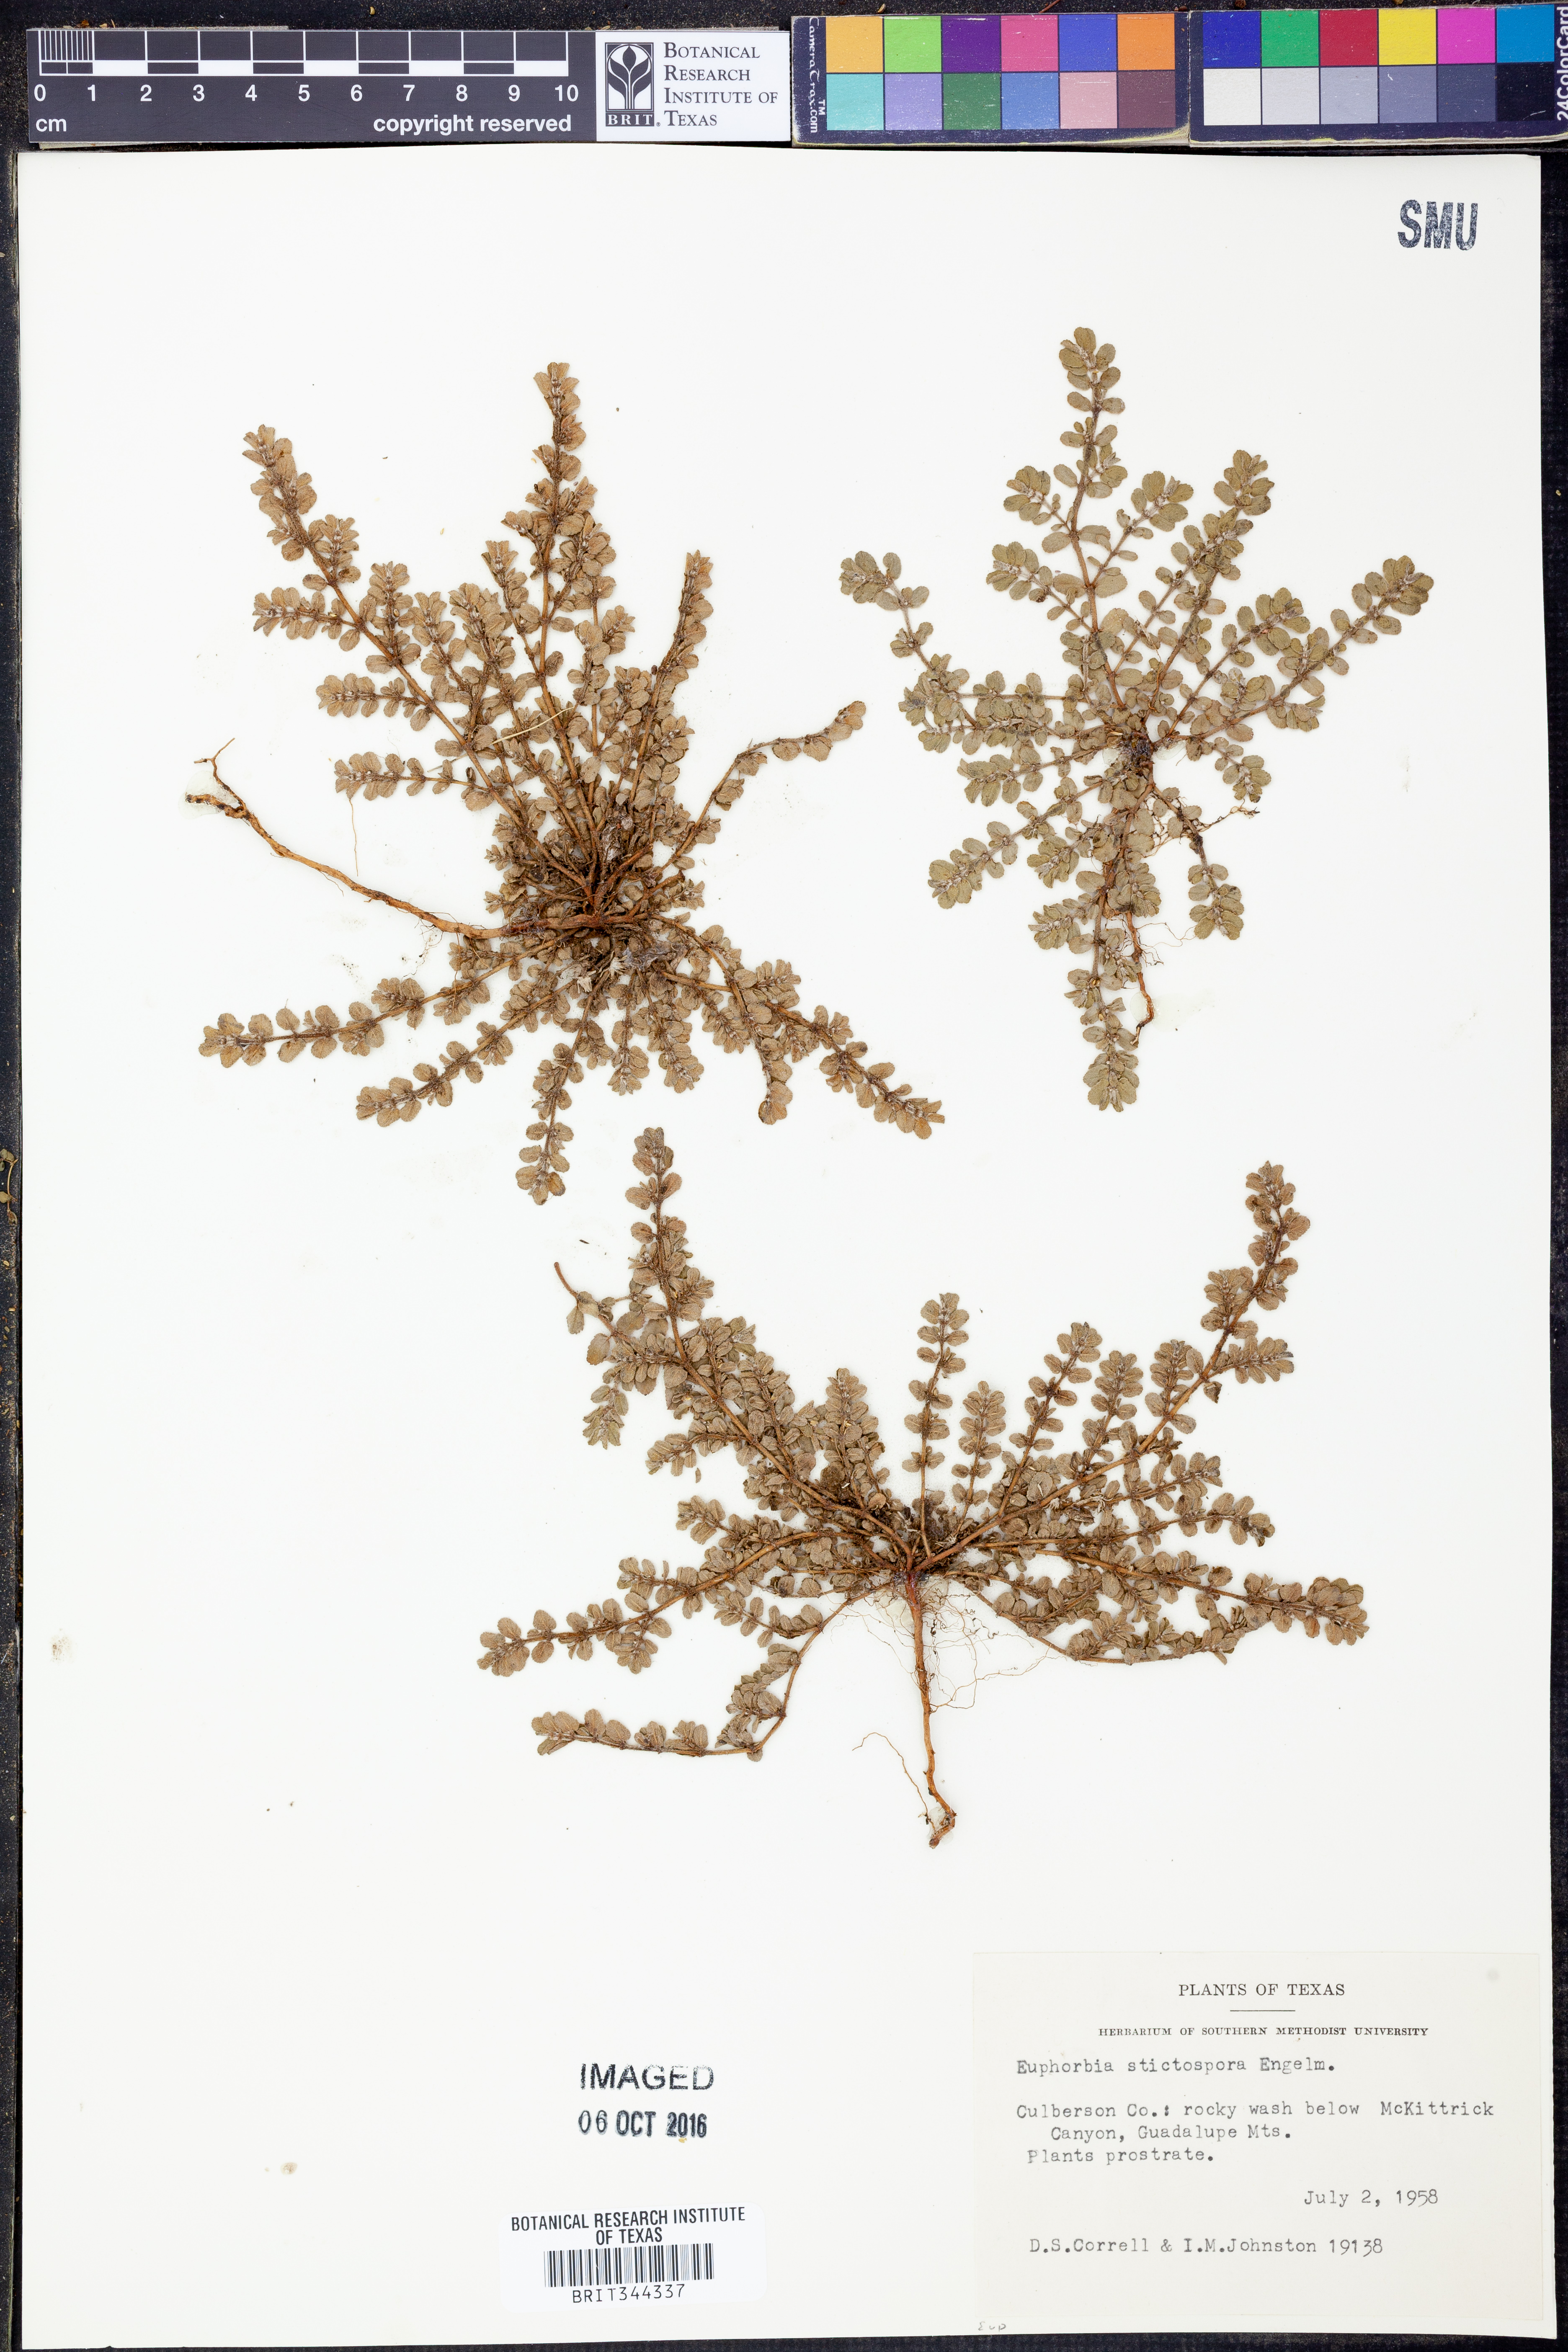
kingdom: Plantae
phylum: Tracheophyta
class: Magnoliopsida
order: Malpighiales
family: Euphorbiaceae
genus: Euphorbia
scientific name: Euphorbia stictospora
